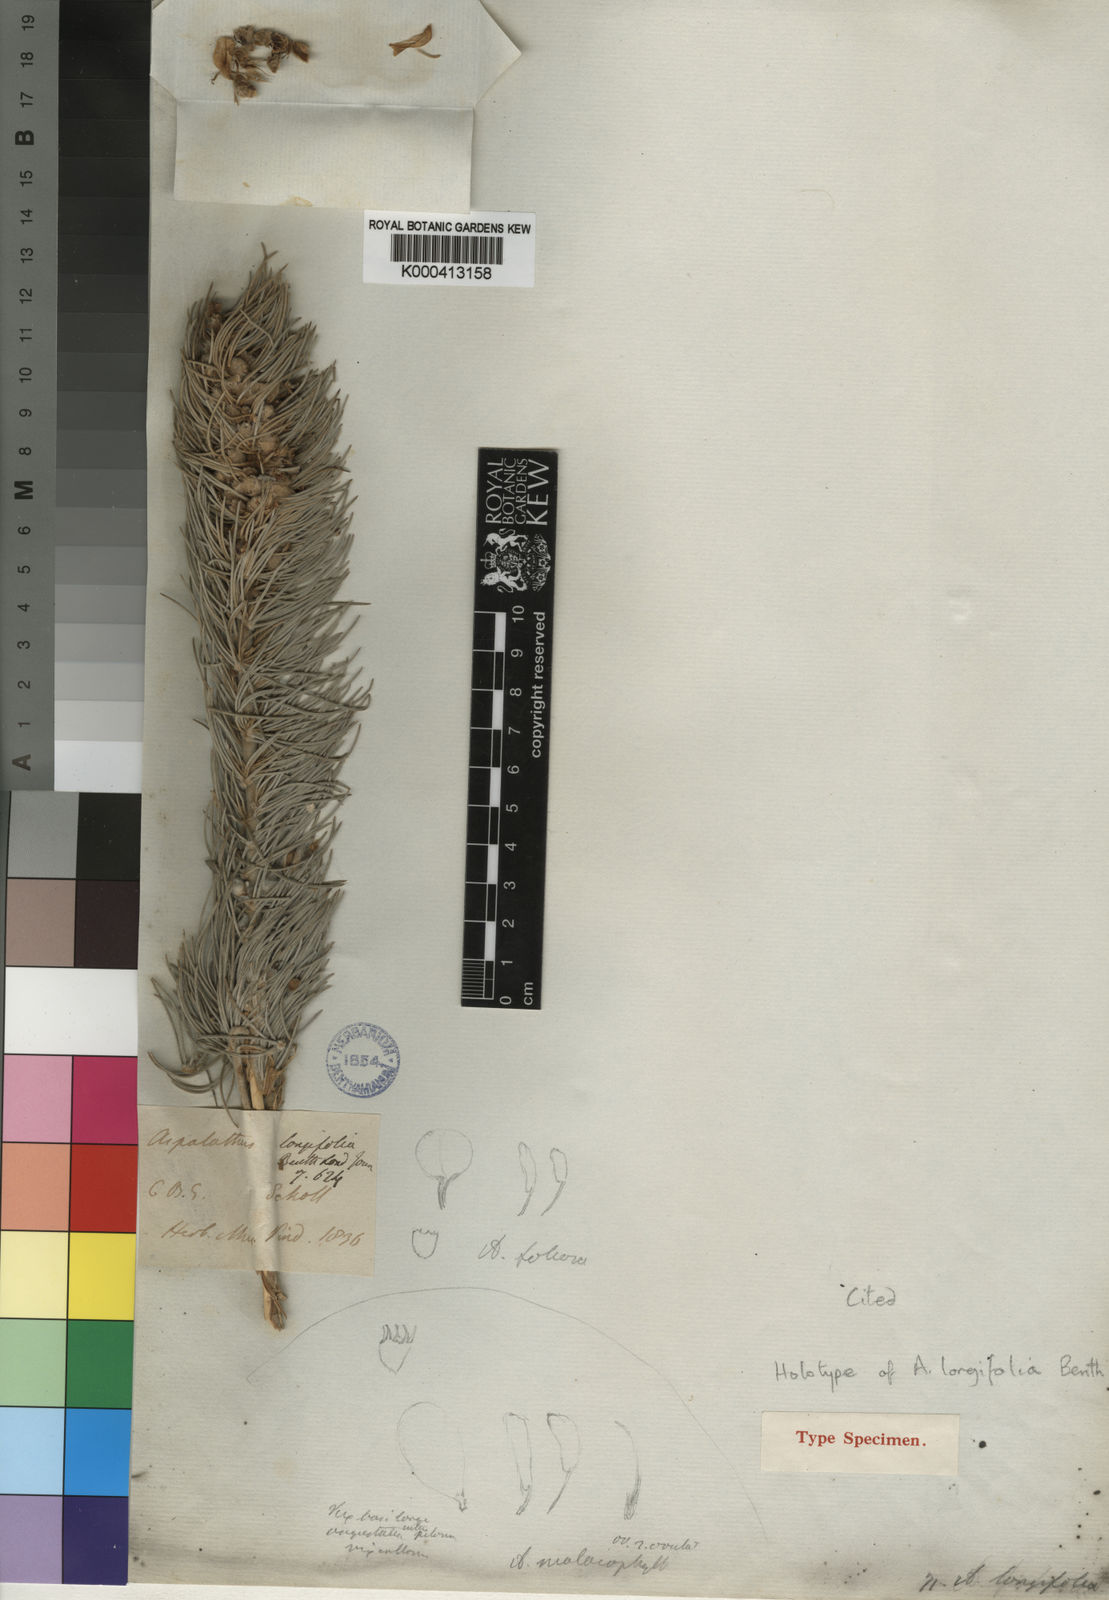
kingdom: Plantae
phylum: Tracheophyta
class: Magnoliopsida
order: Fabales
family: Fabaceae
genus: Aspalathus
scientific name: Aspalathus longifolia
